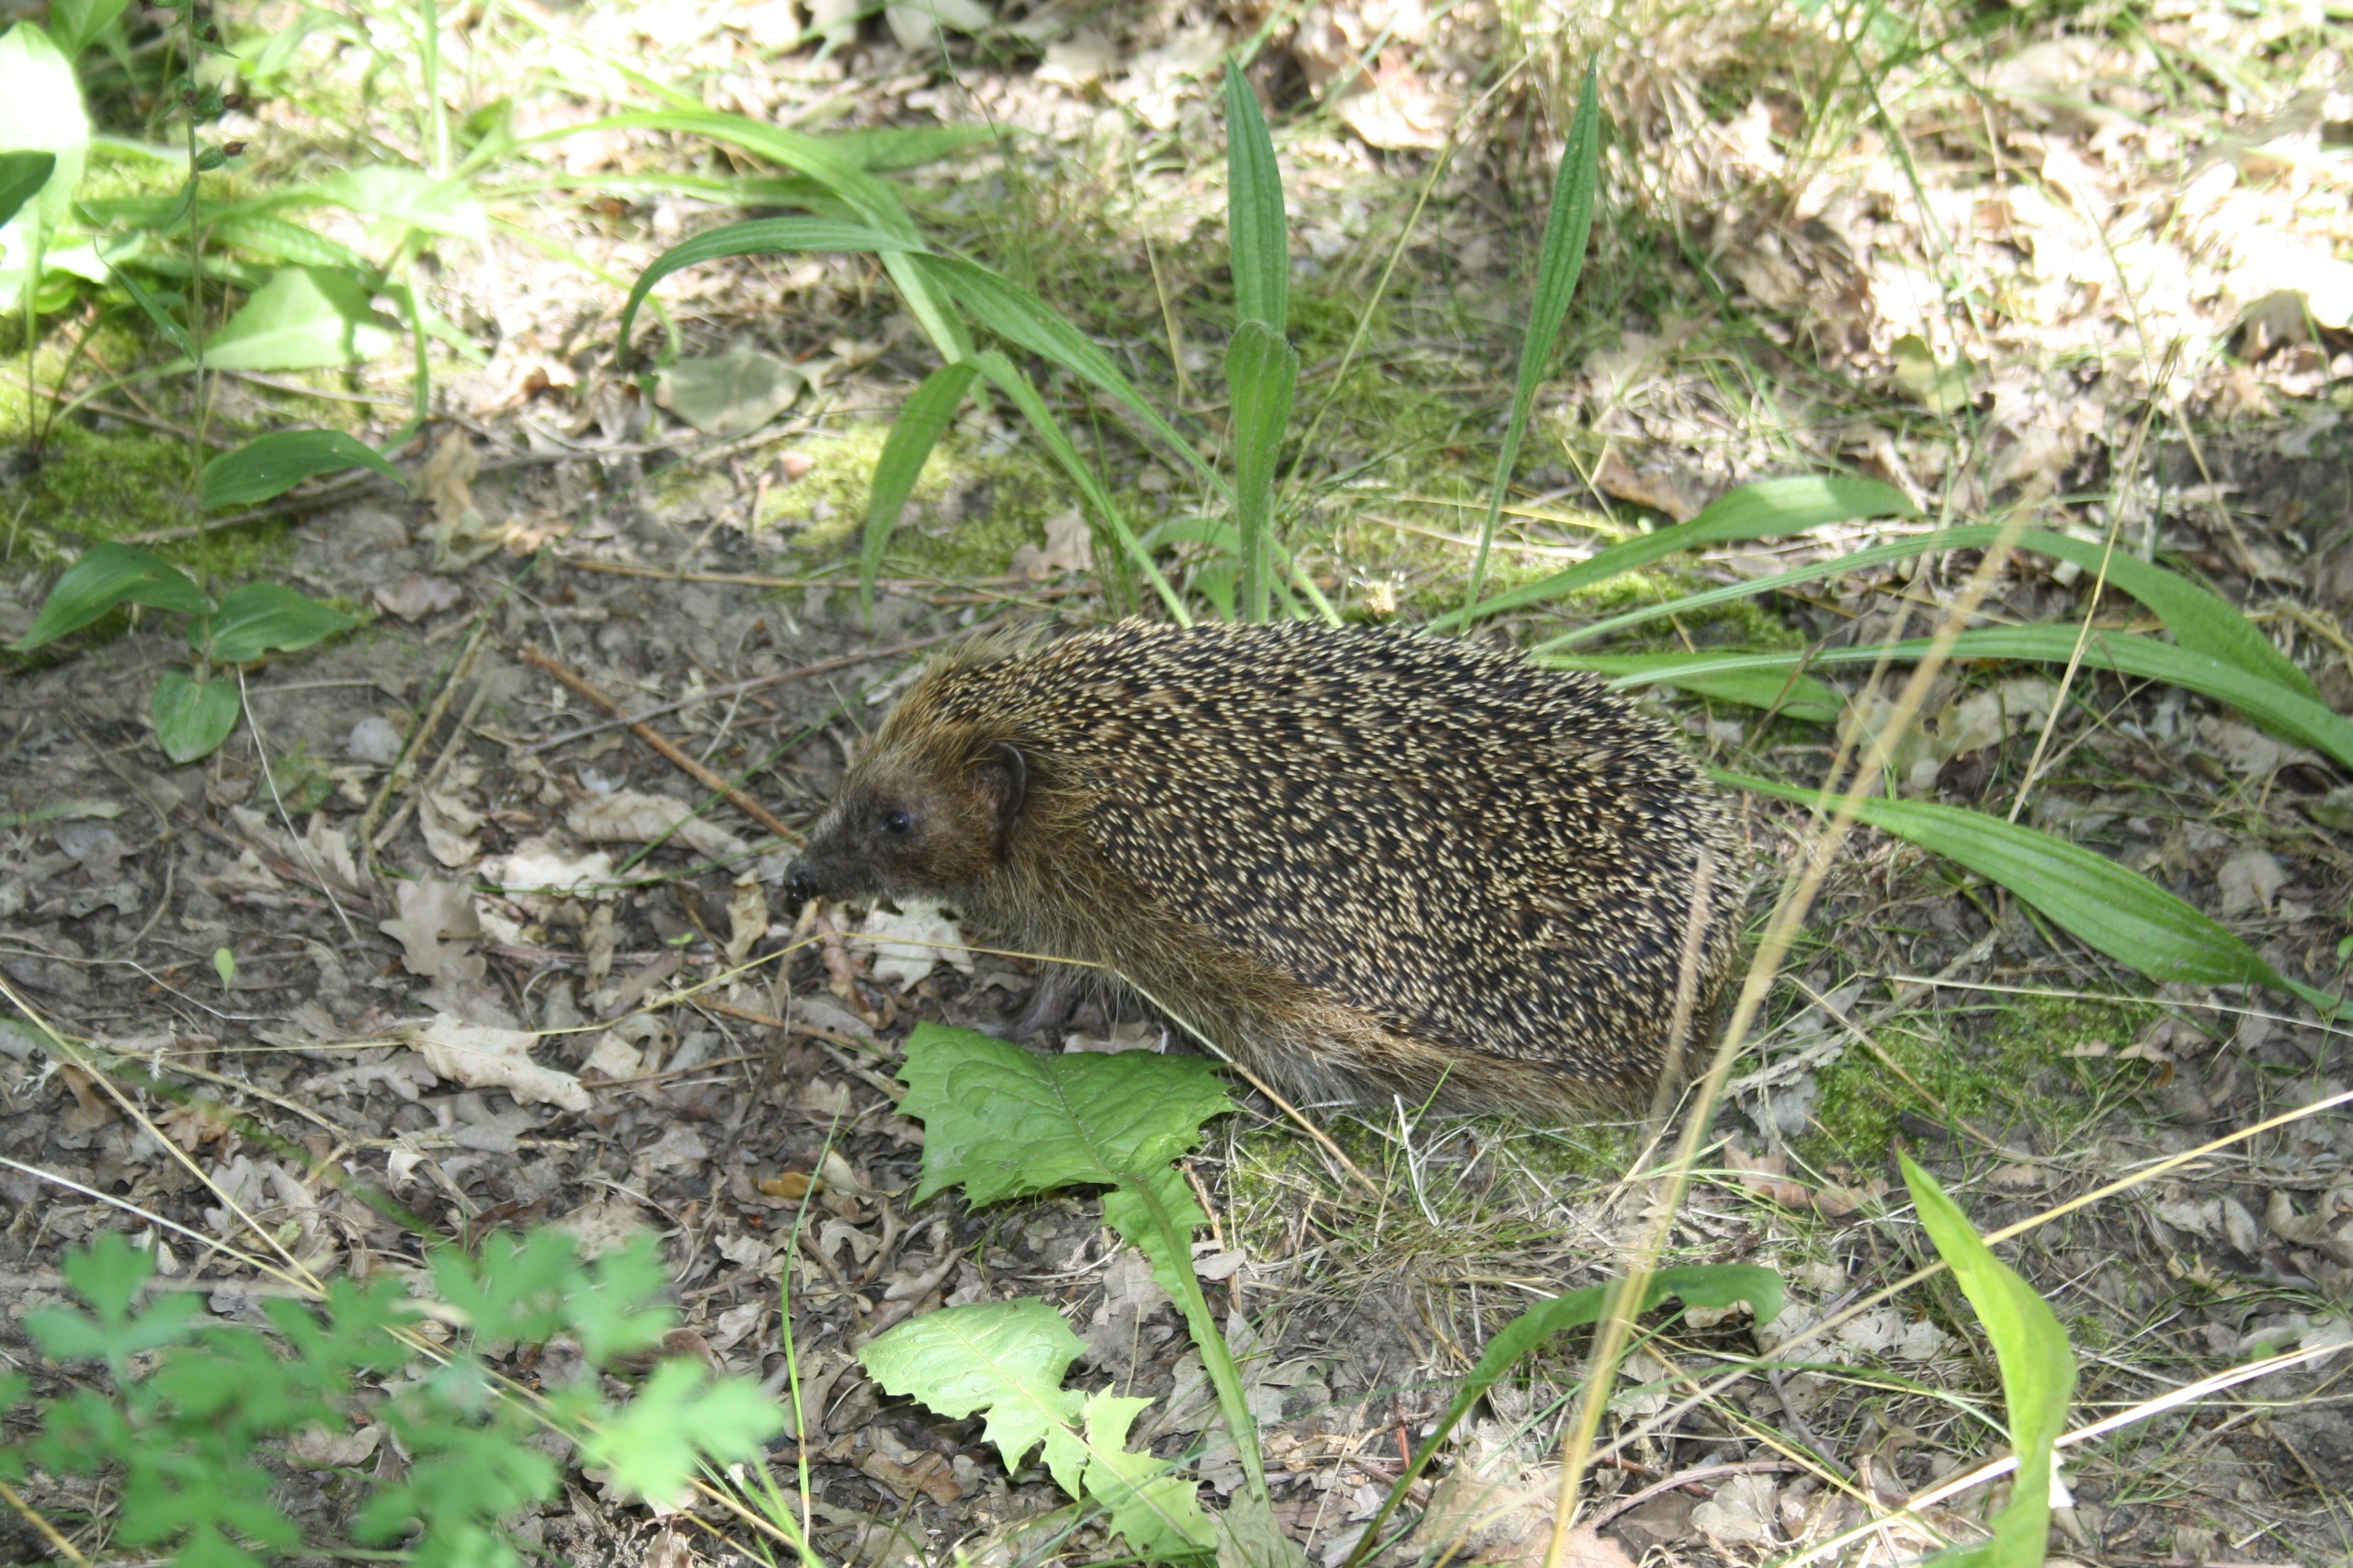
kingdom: Animalia
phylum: Chordata
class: Mammalia
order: Erinaceomorpha
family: Erinaceidae
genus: Erinaceus
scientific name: Erinaceus europaeus
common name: Pindsvin
